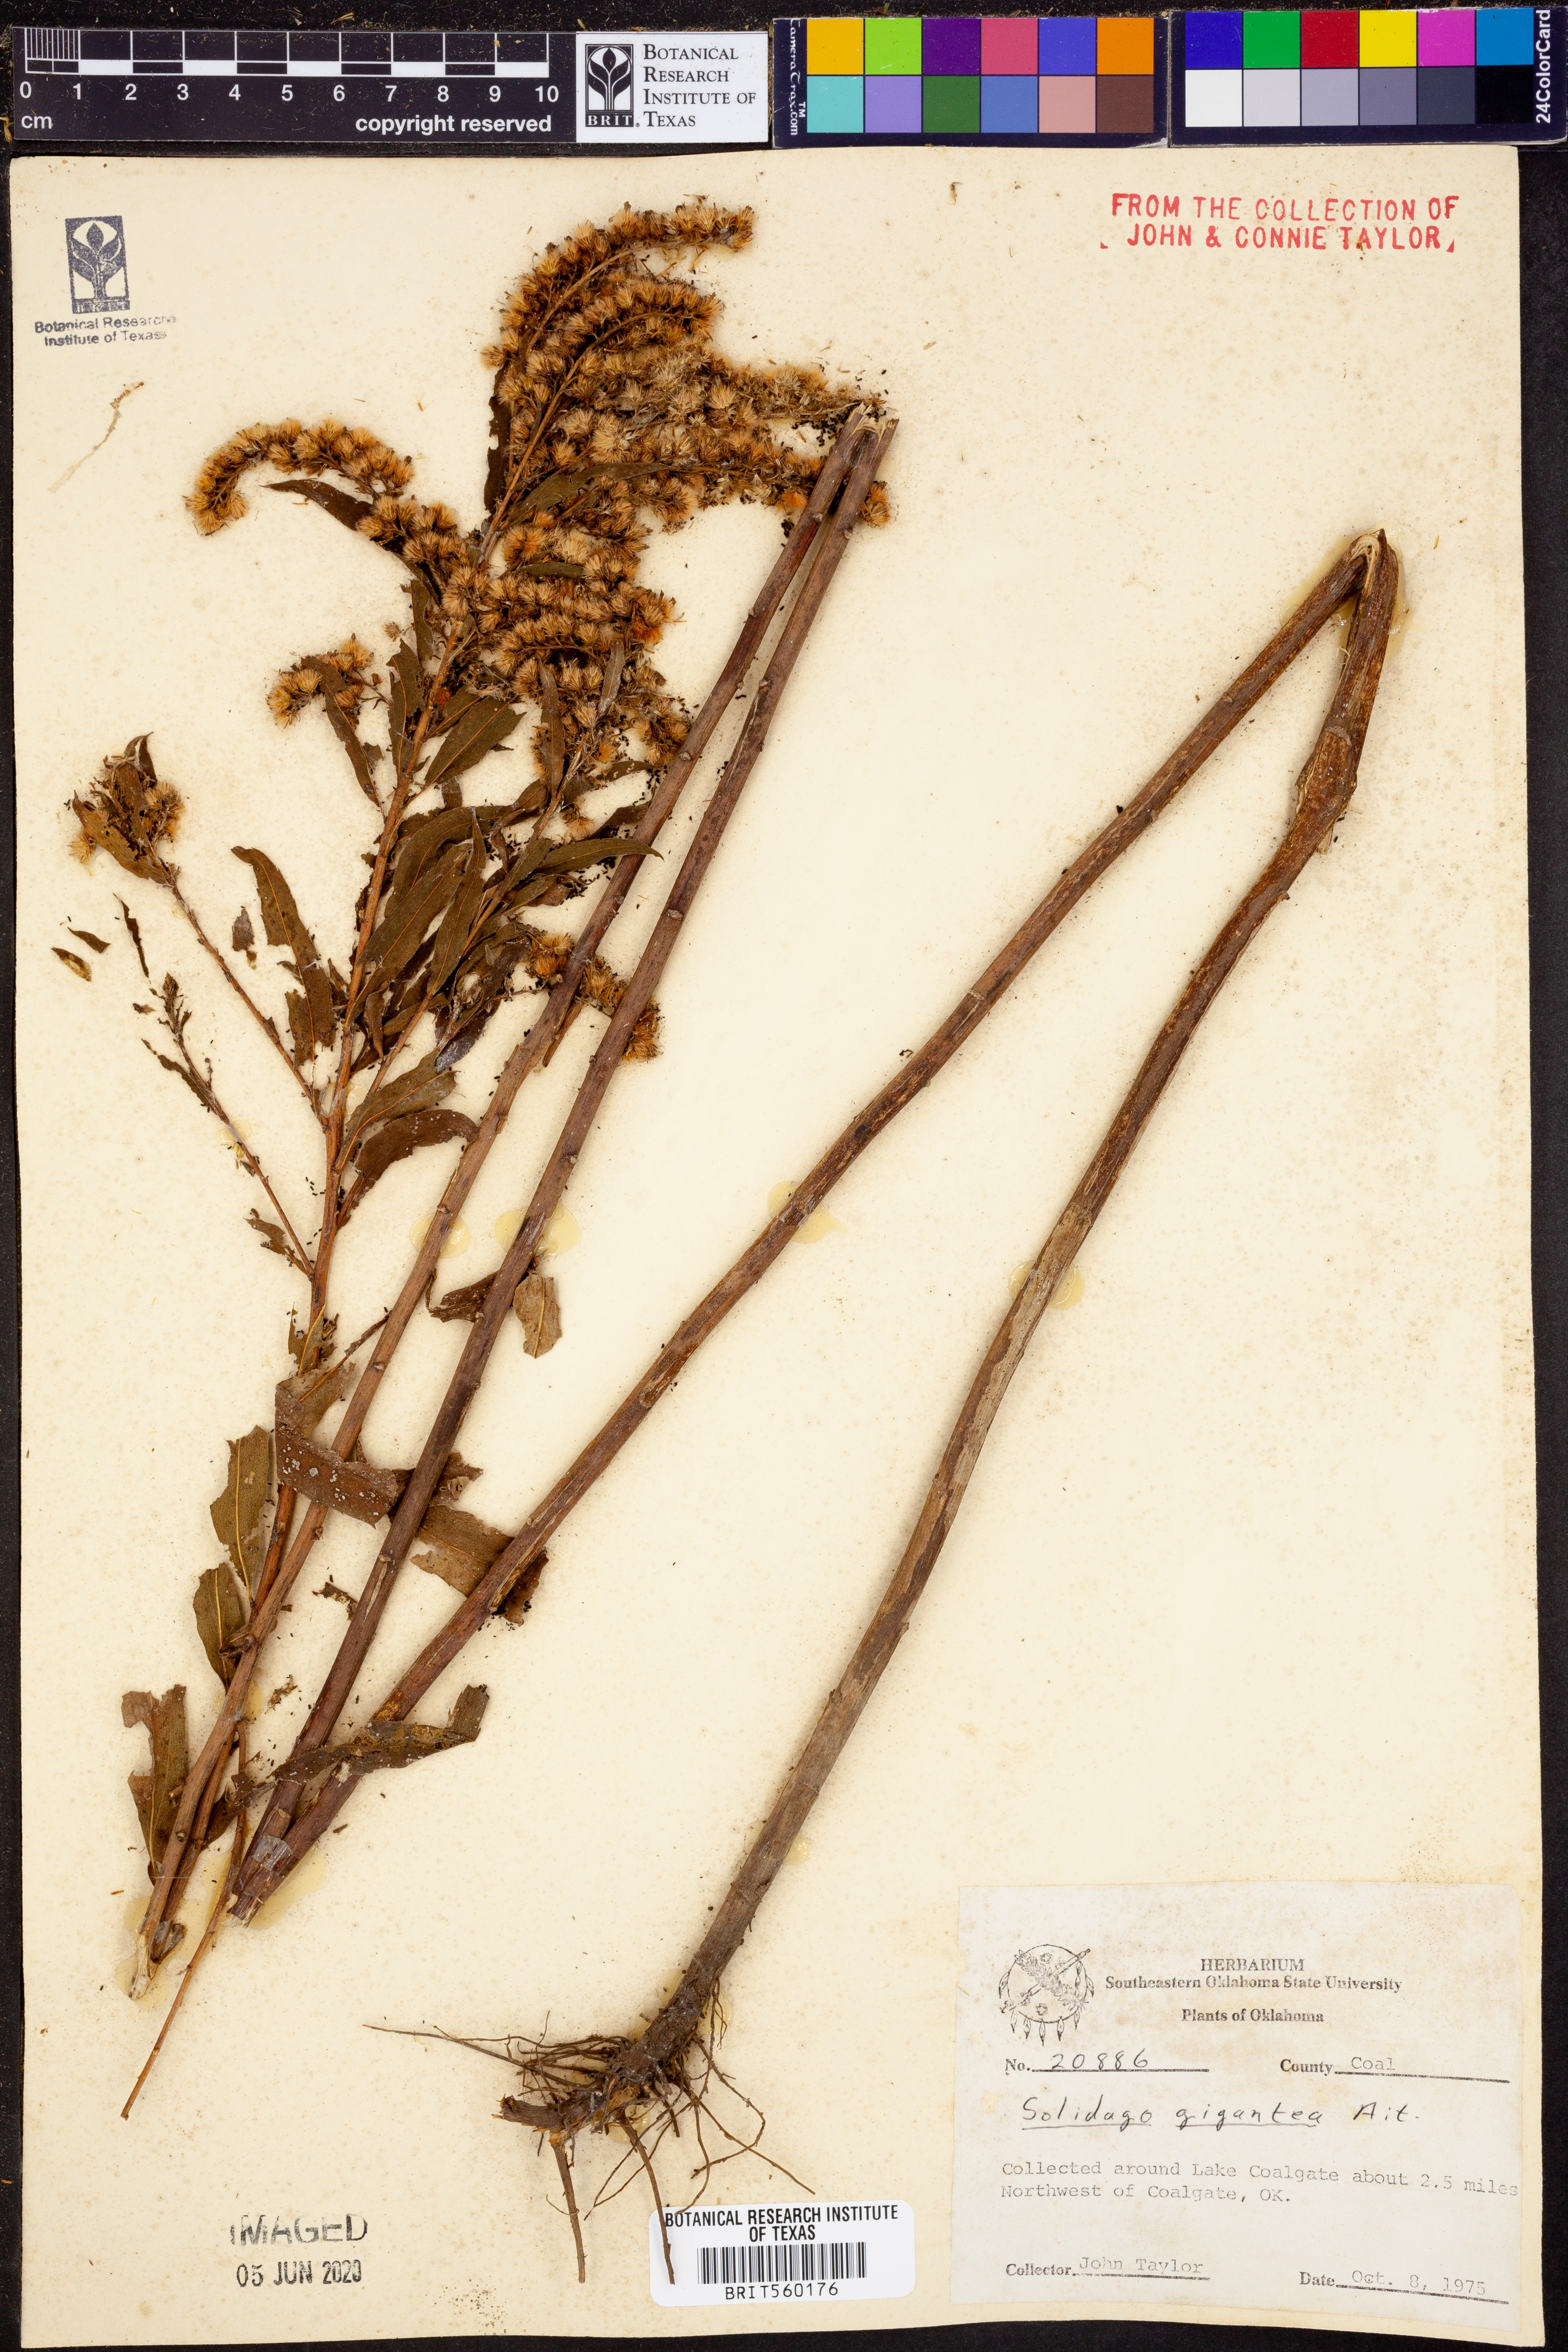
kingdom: Plantae
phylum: Tracheophyta
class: Magnoliopsida
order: Asterales
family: Asteraceae
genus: Solidago
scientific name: Solidago gigantea
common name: Giant goldenrod
